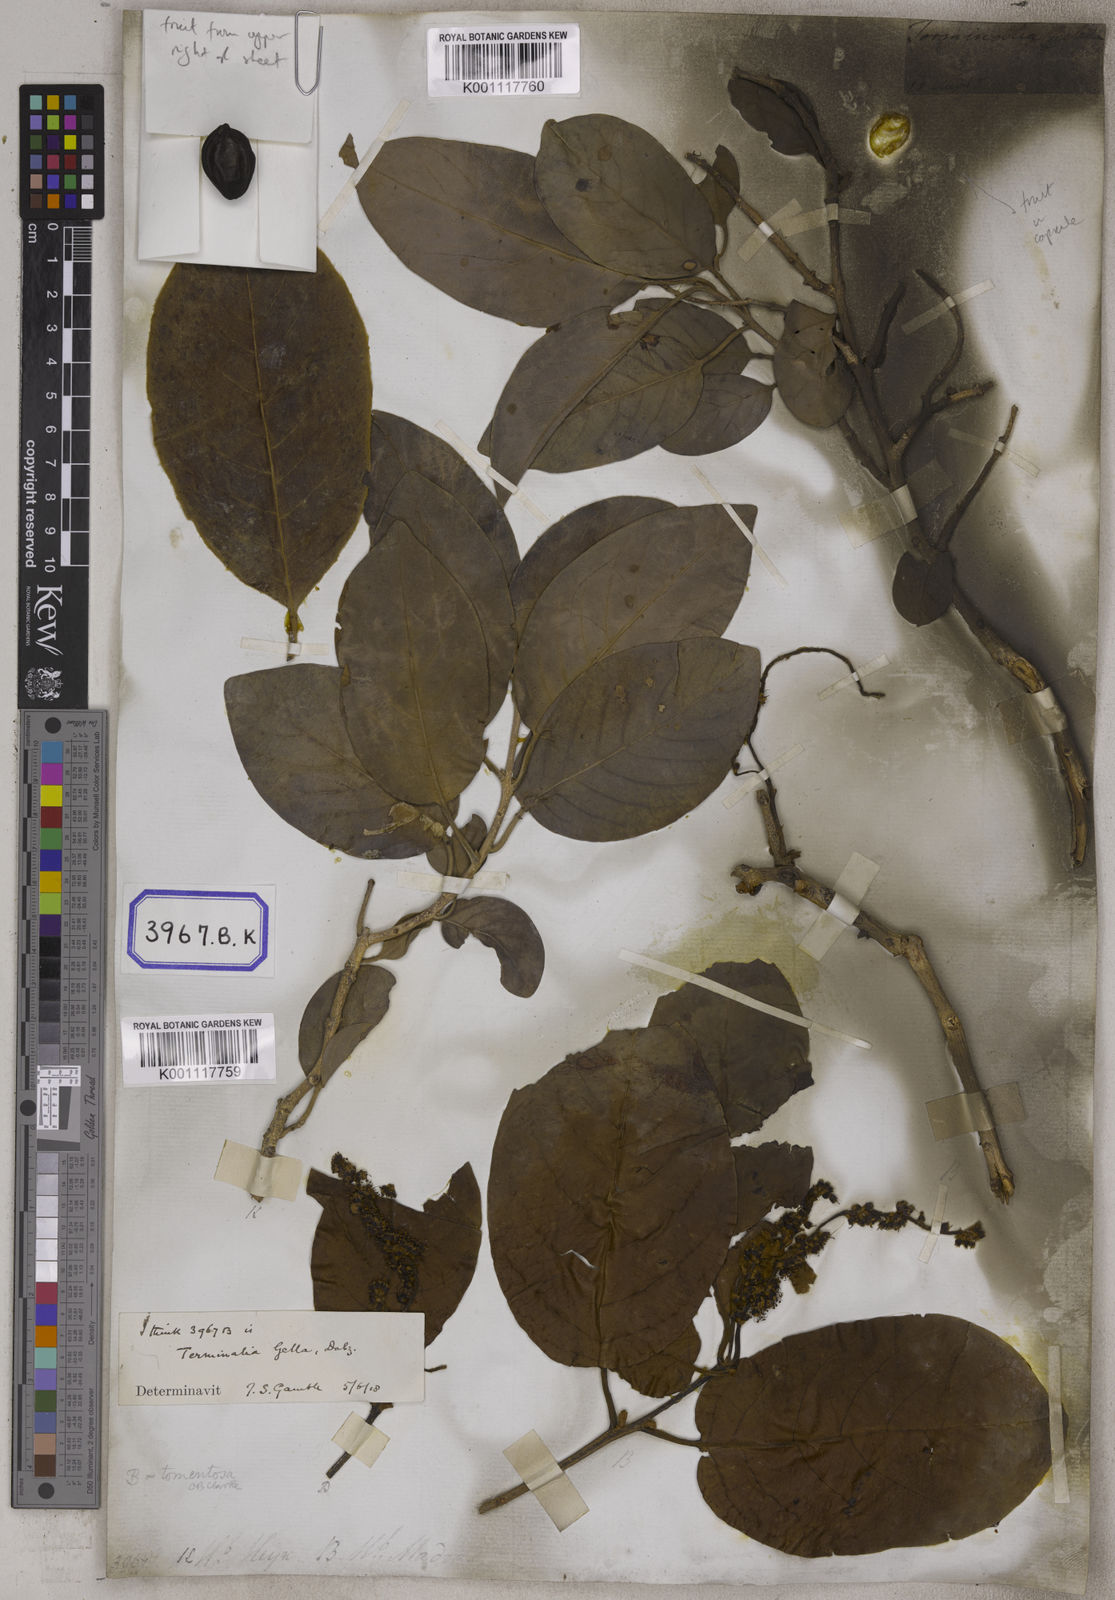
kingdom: Plantae
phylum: Tracheophyta
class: Magnoliopsida
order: Myrtales
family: Combretaceae
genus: Terminalia
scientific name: Terminalia chebula
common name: Myrobalan
